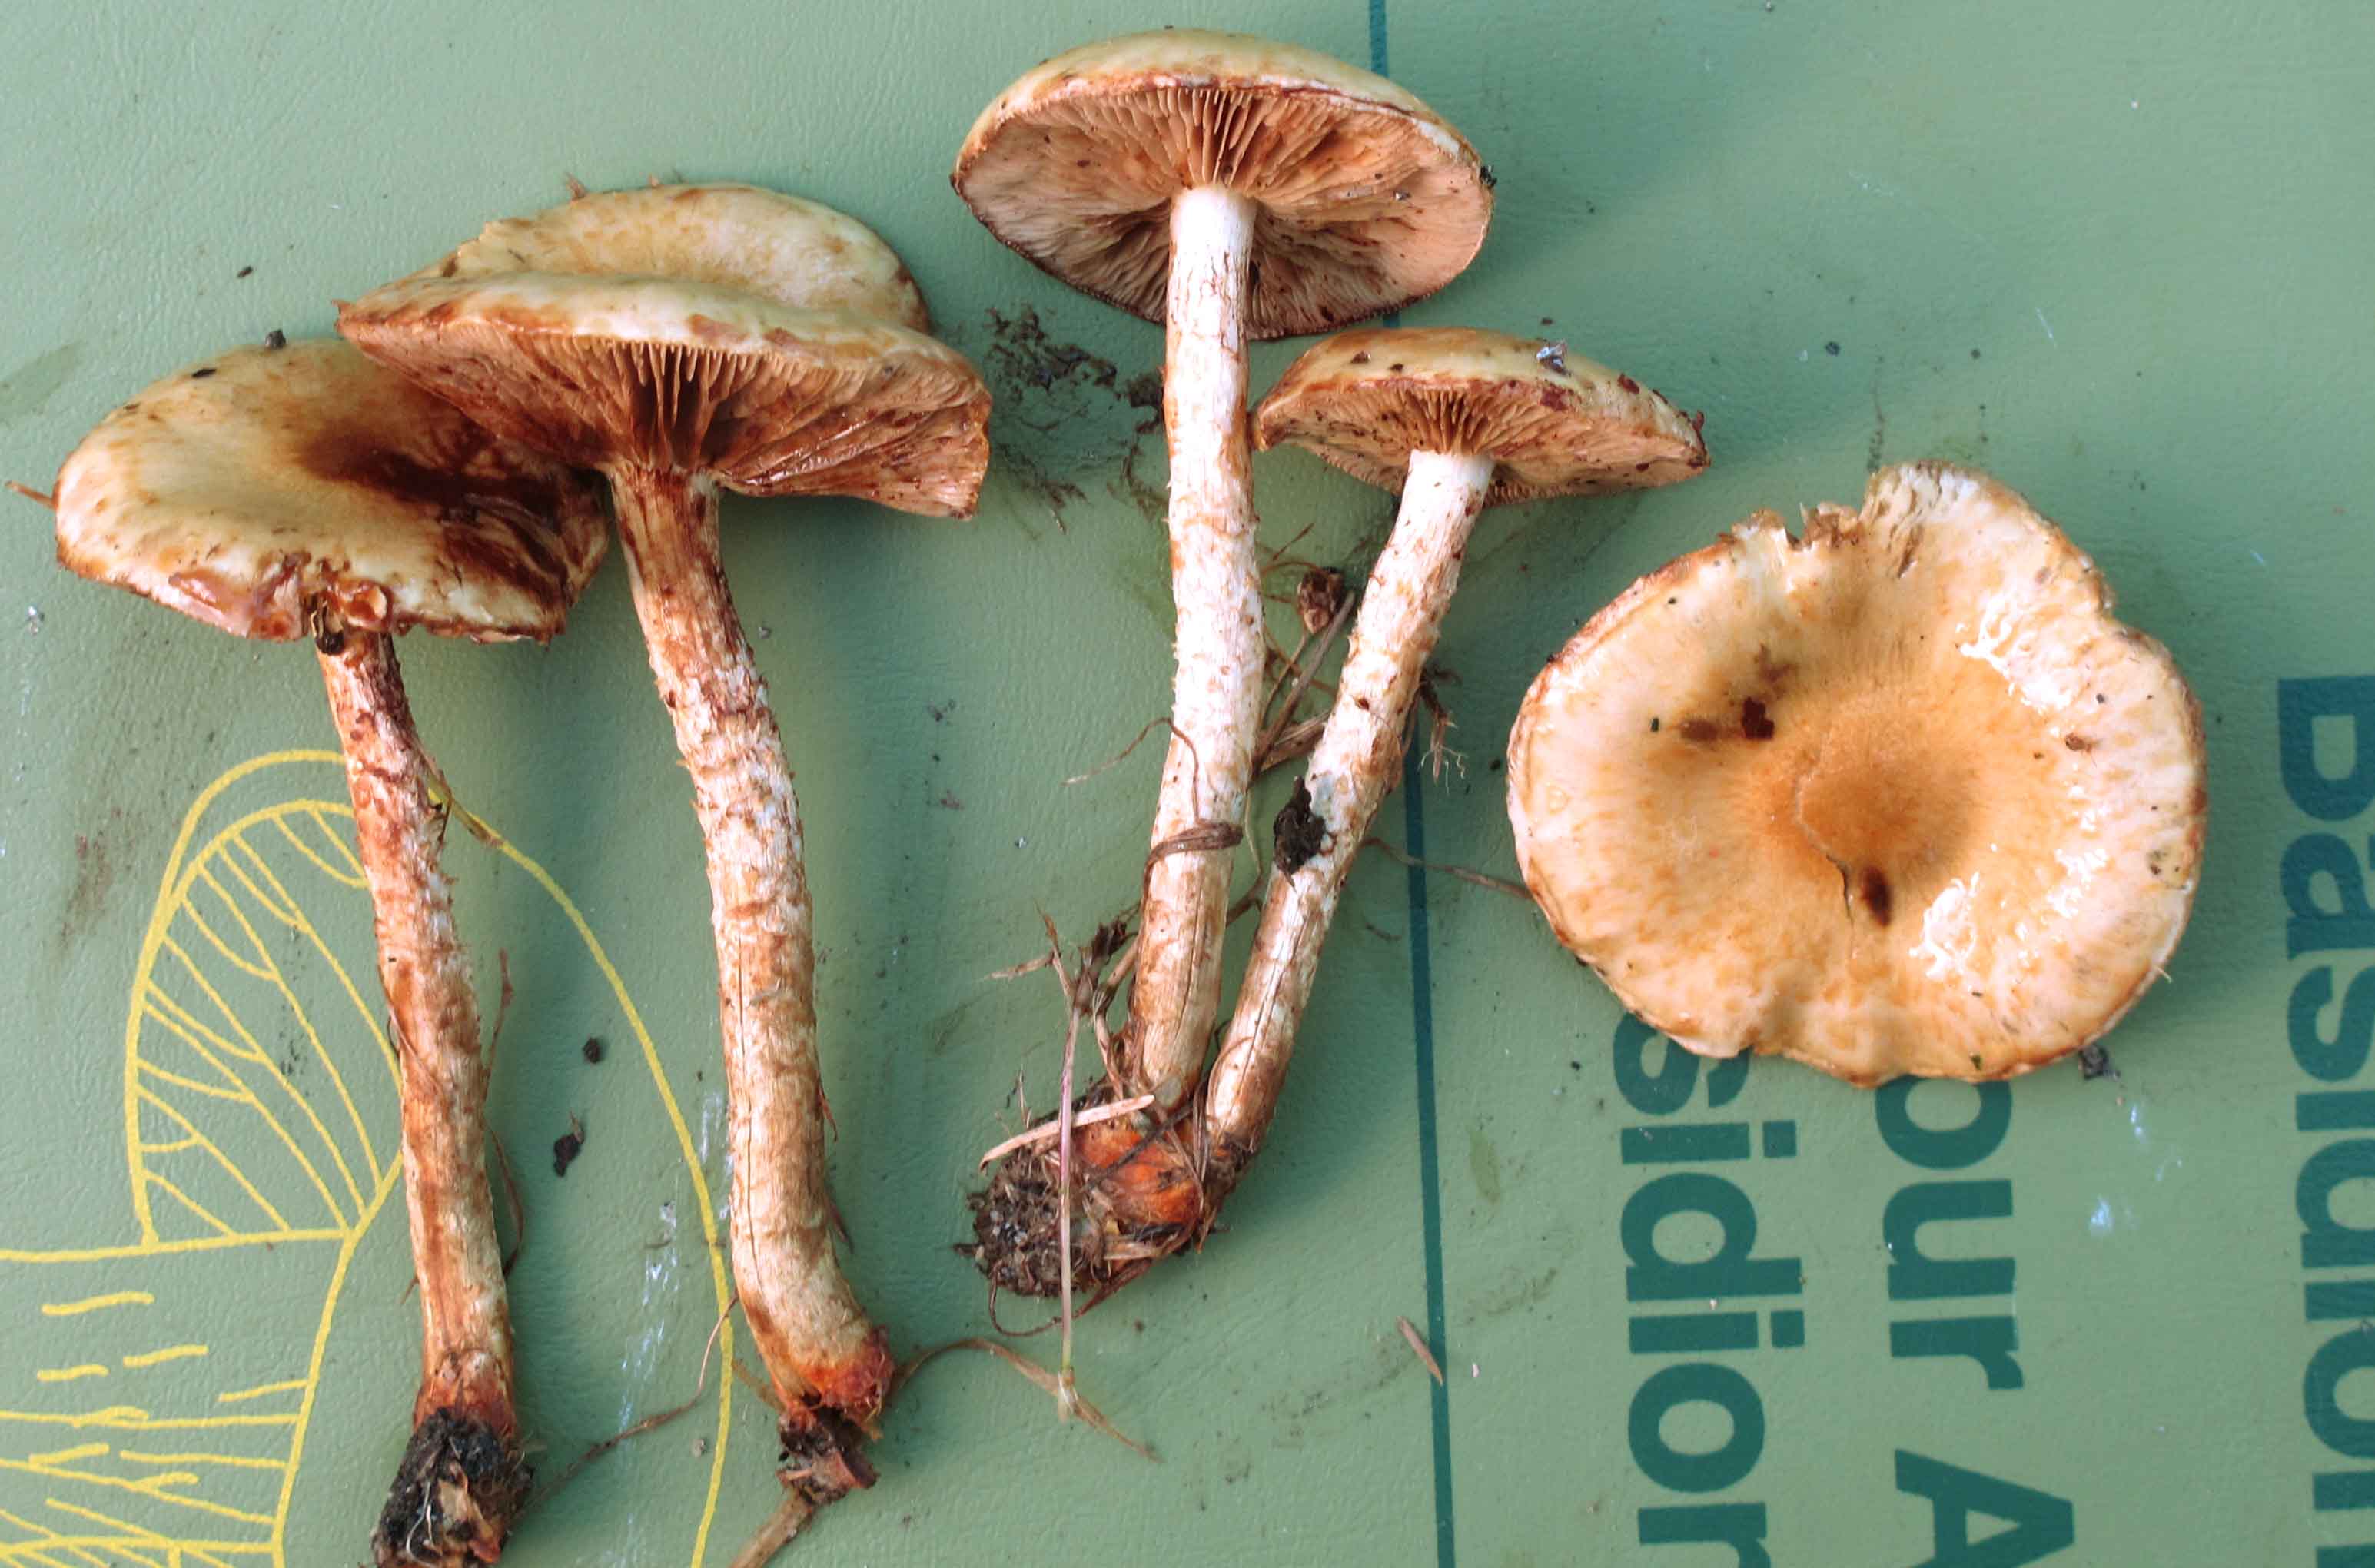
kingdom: Fungi
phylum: Basidiomycota
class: Agaricomycetes
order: Agaricales
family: Strophariaceae
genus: Pholiota
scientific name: Pholiota gummosa
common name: grøngul skælhat
